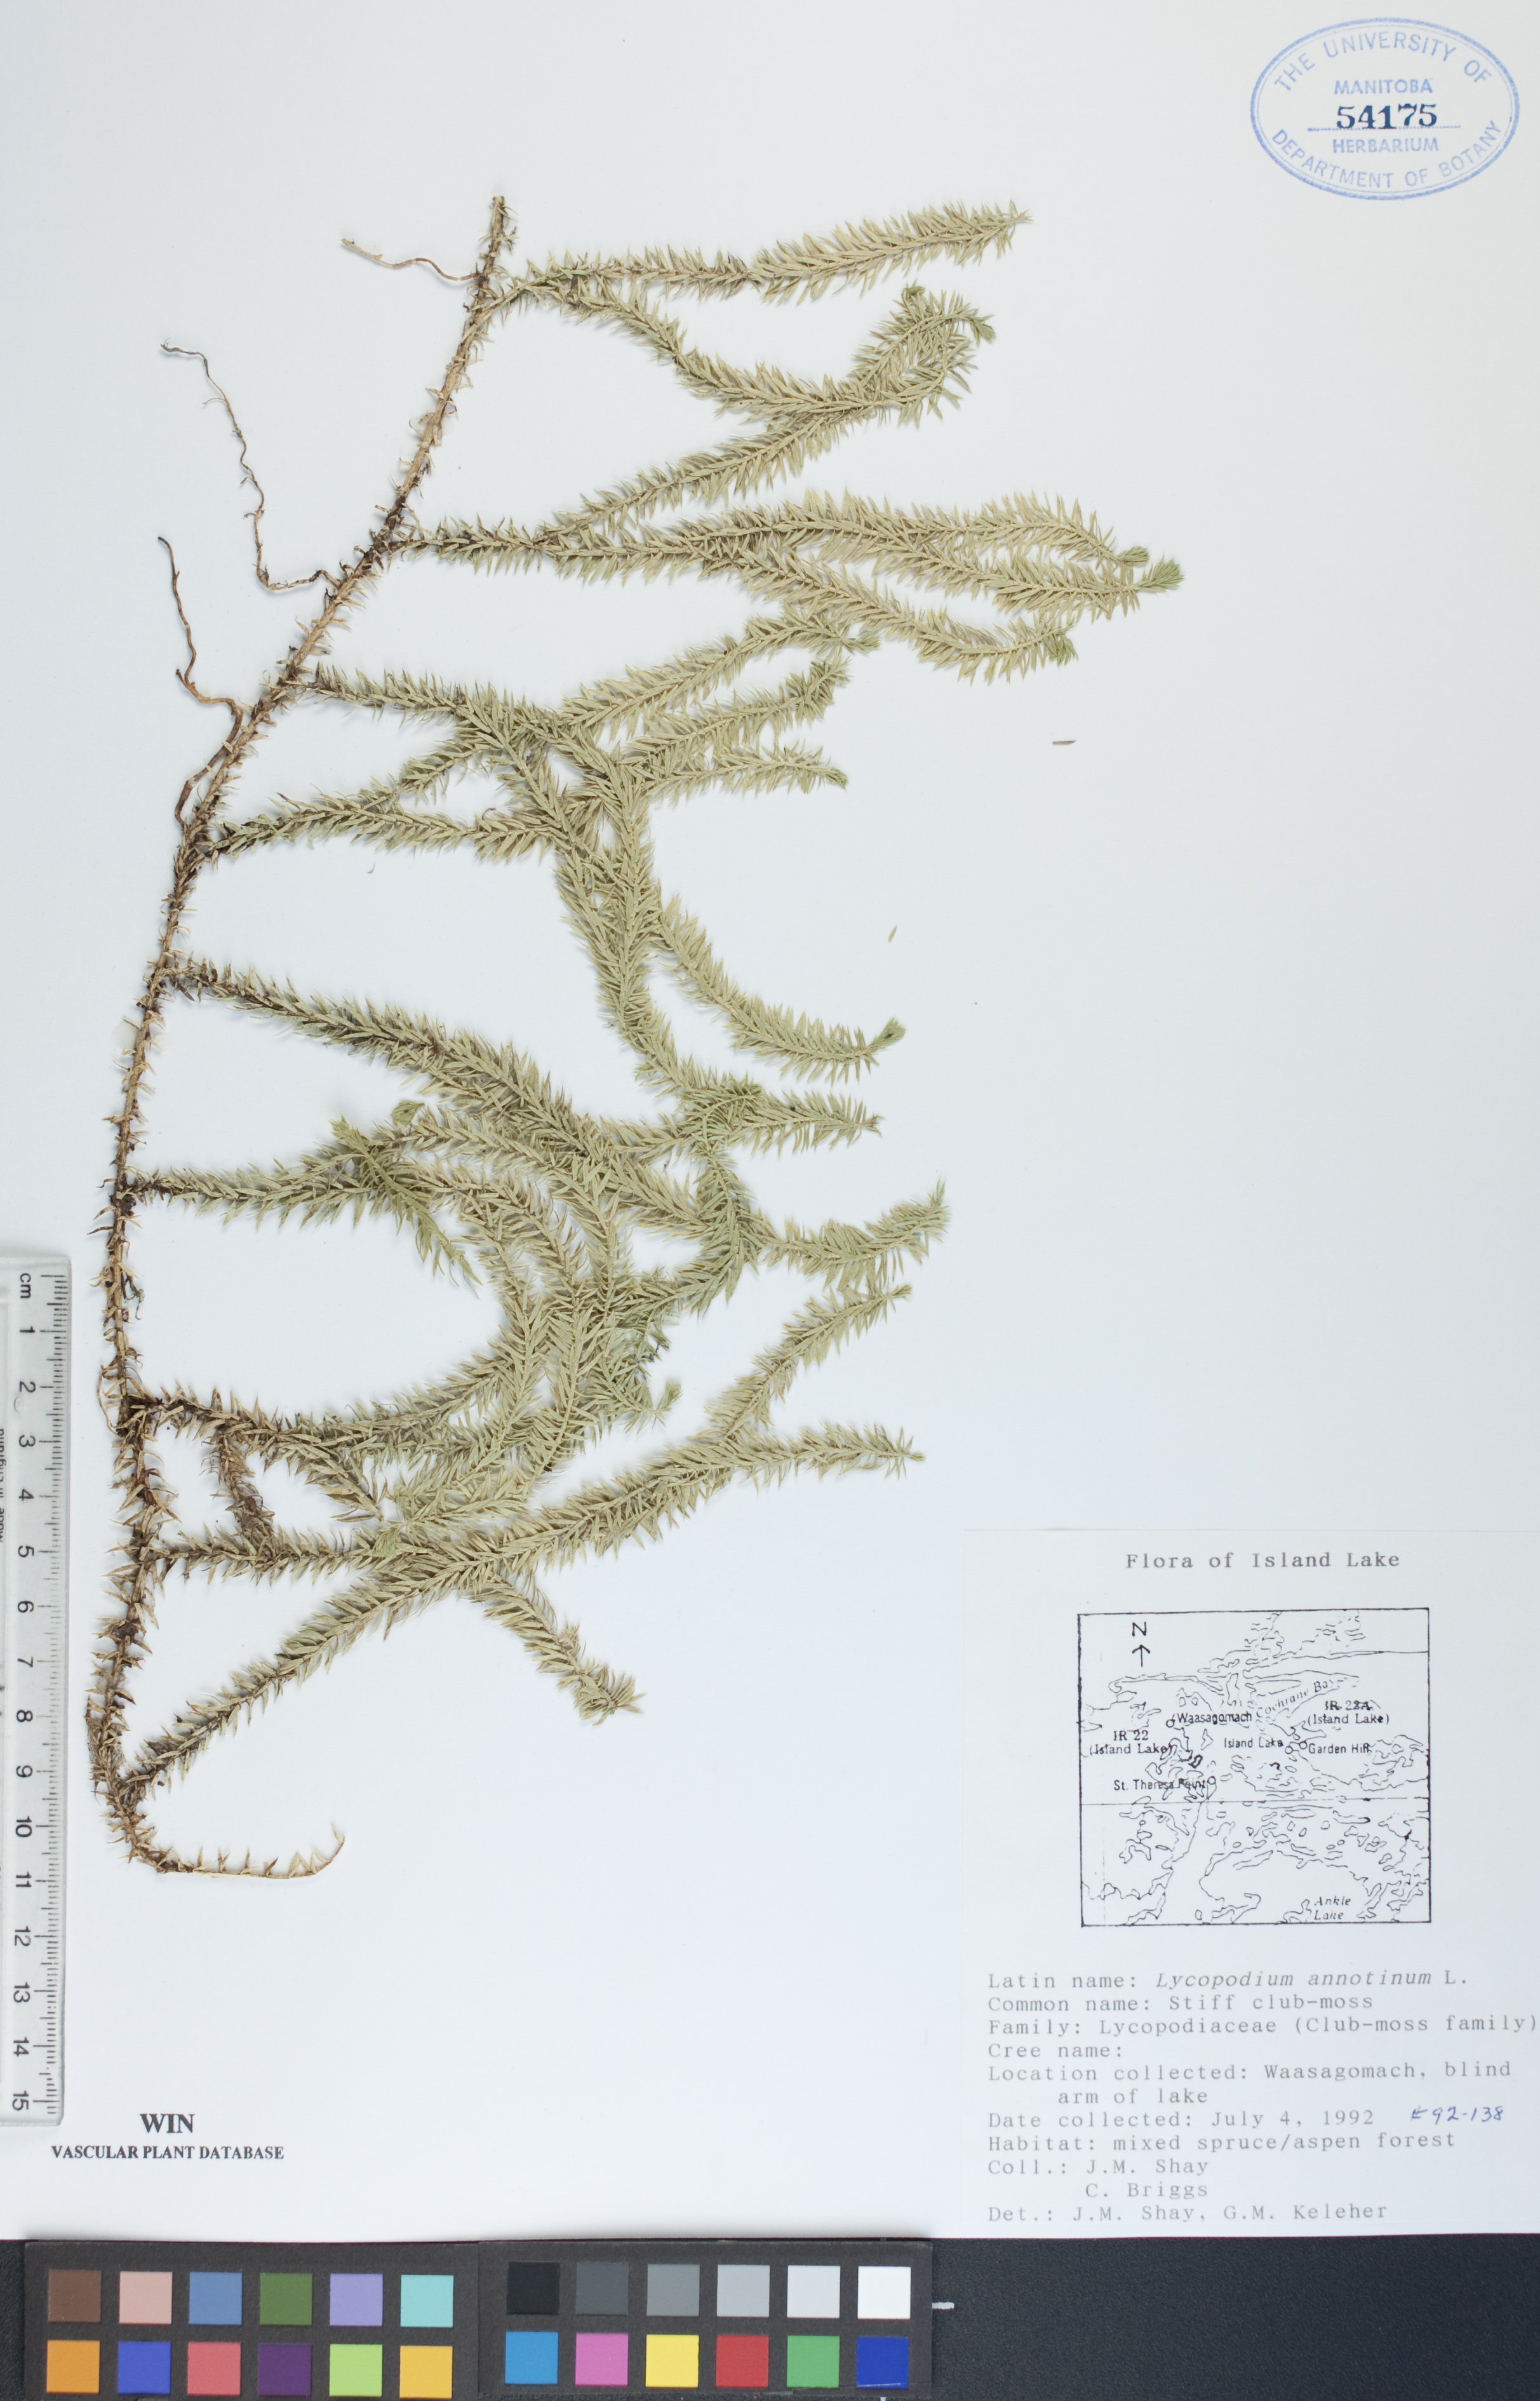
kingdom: Plantae
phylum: Tracheophyta
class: Lycopodiopsida
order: Lycopodiales
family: Lycopodiaceae
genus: Spinulum
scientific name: Spinulum annotinum
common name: Interrupted club-moss
